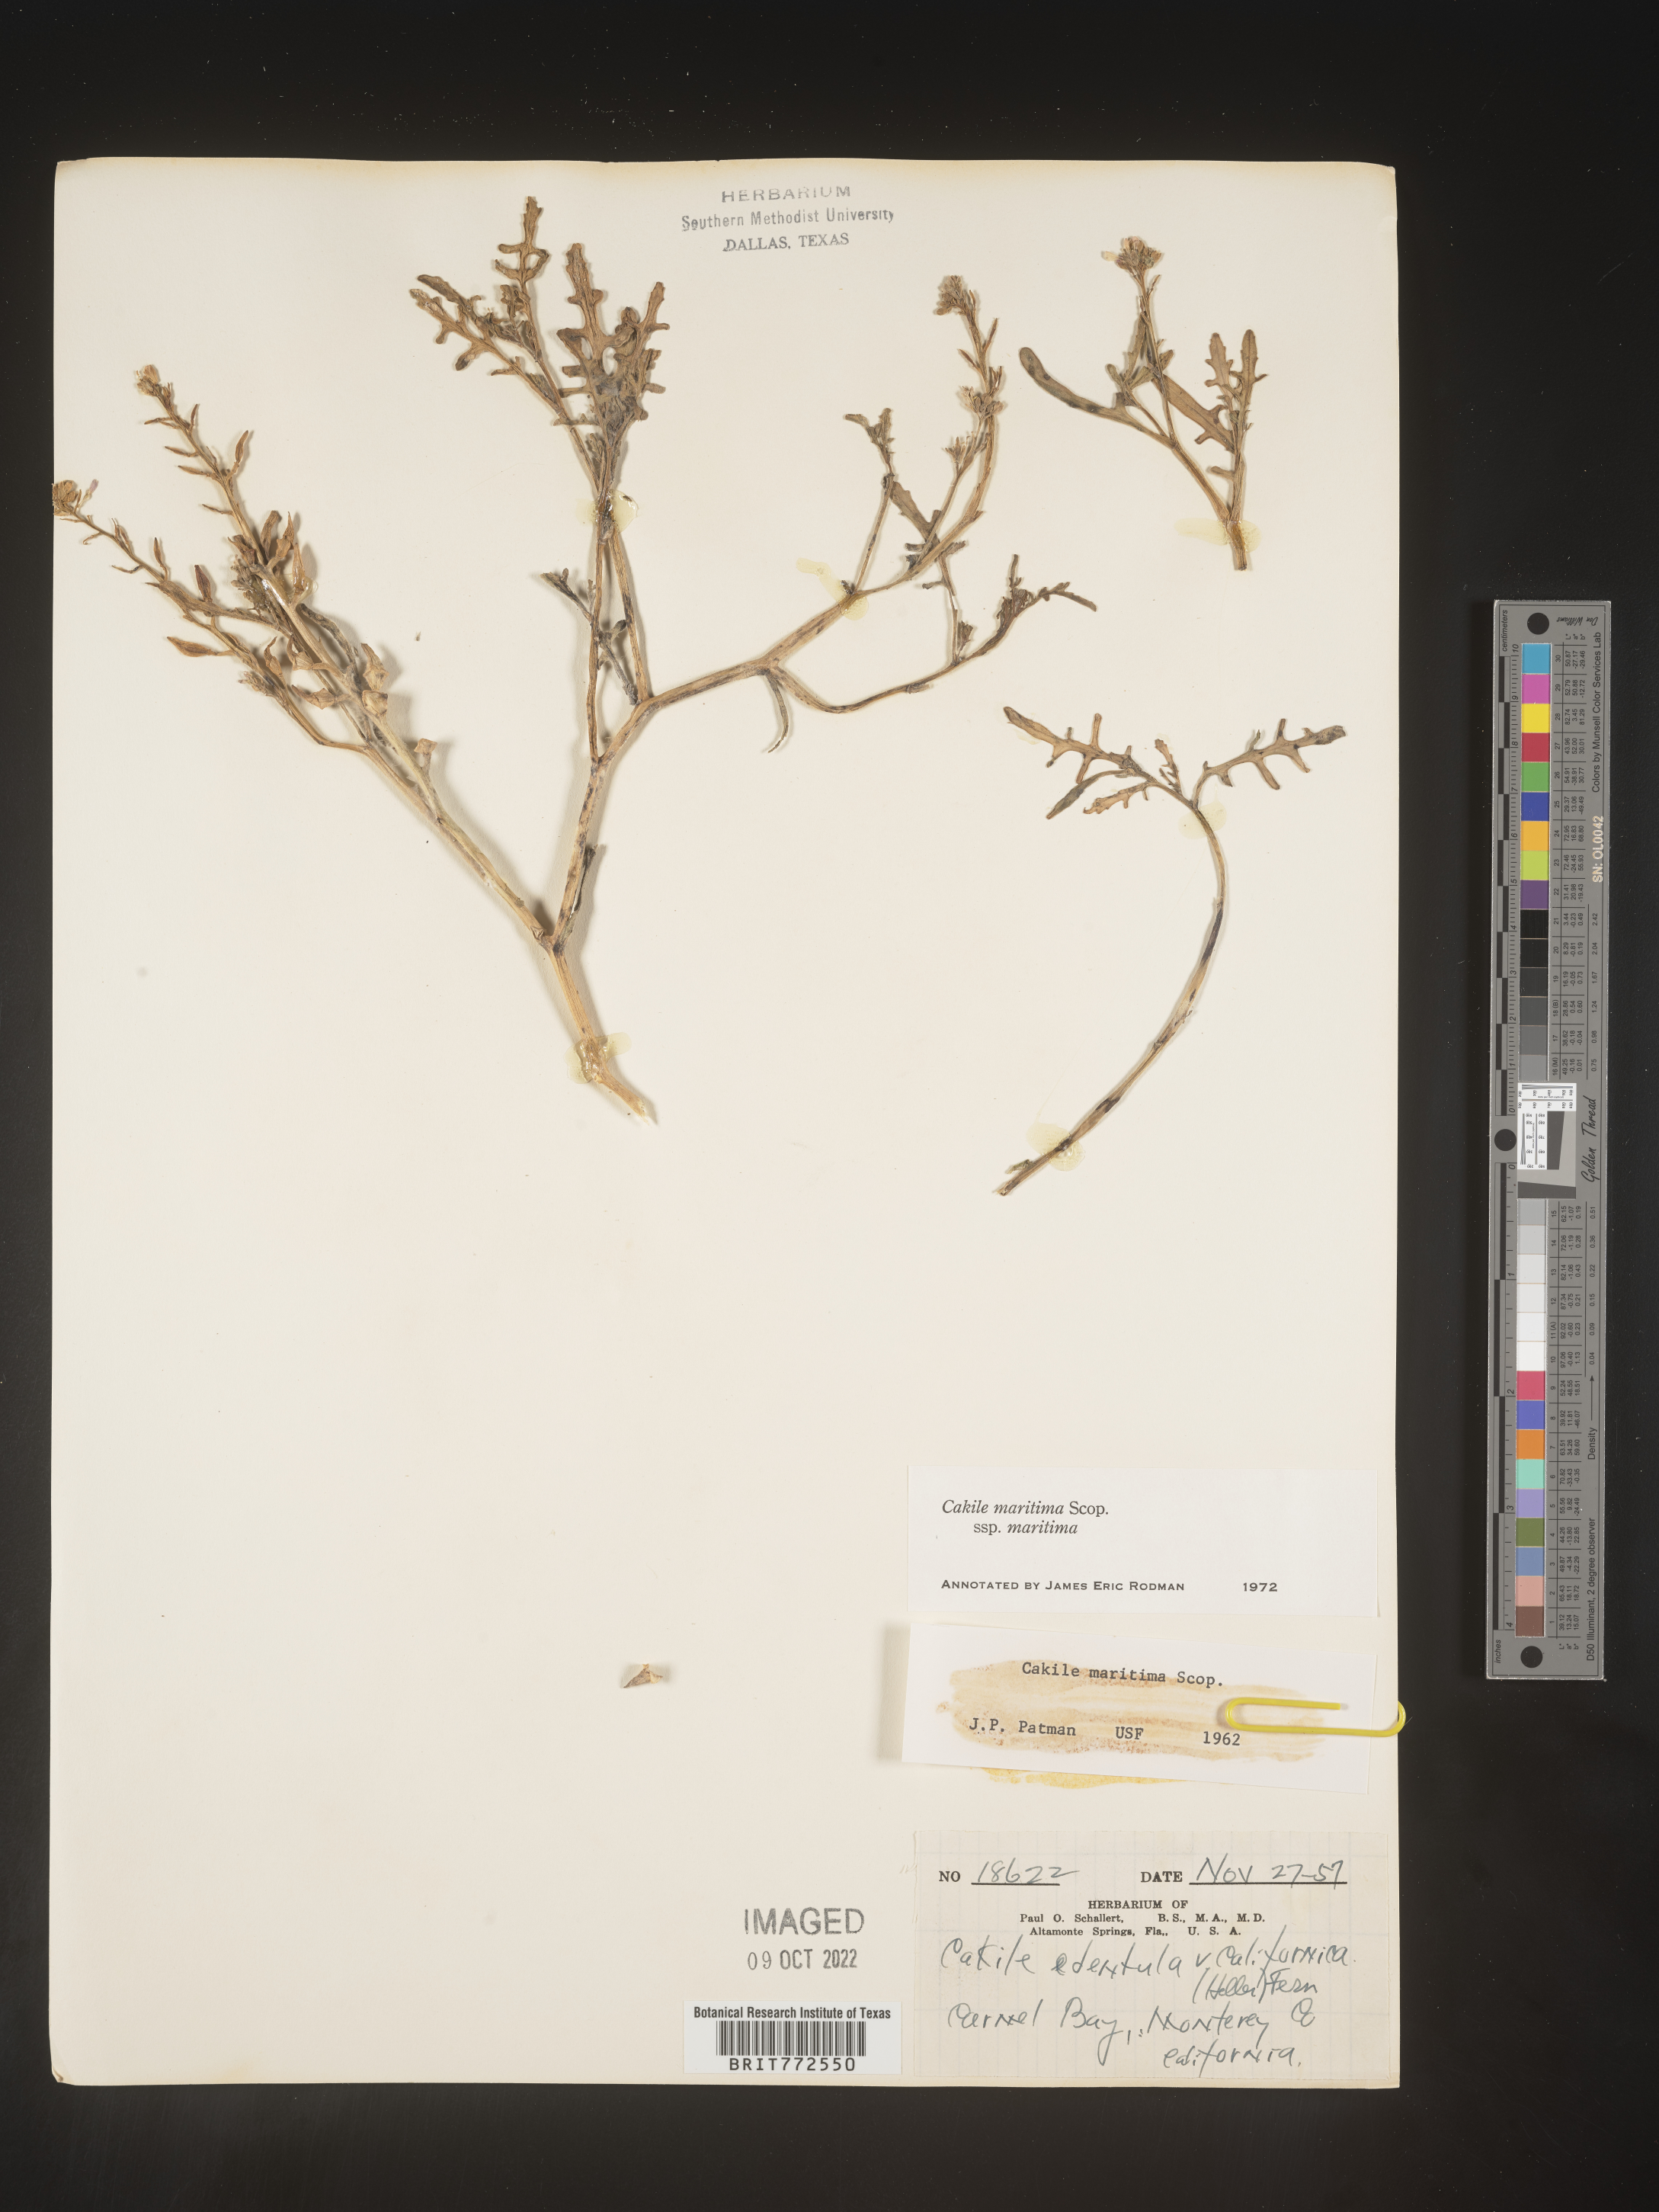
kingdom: Plantae
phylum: Tracheophyta
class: Magnoliopsida
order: Brassicales
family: Brassicaceae
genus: Cakile
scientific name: Cakile
